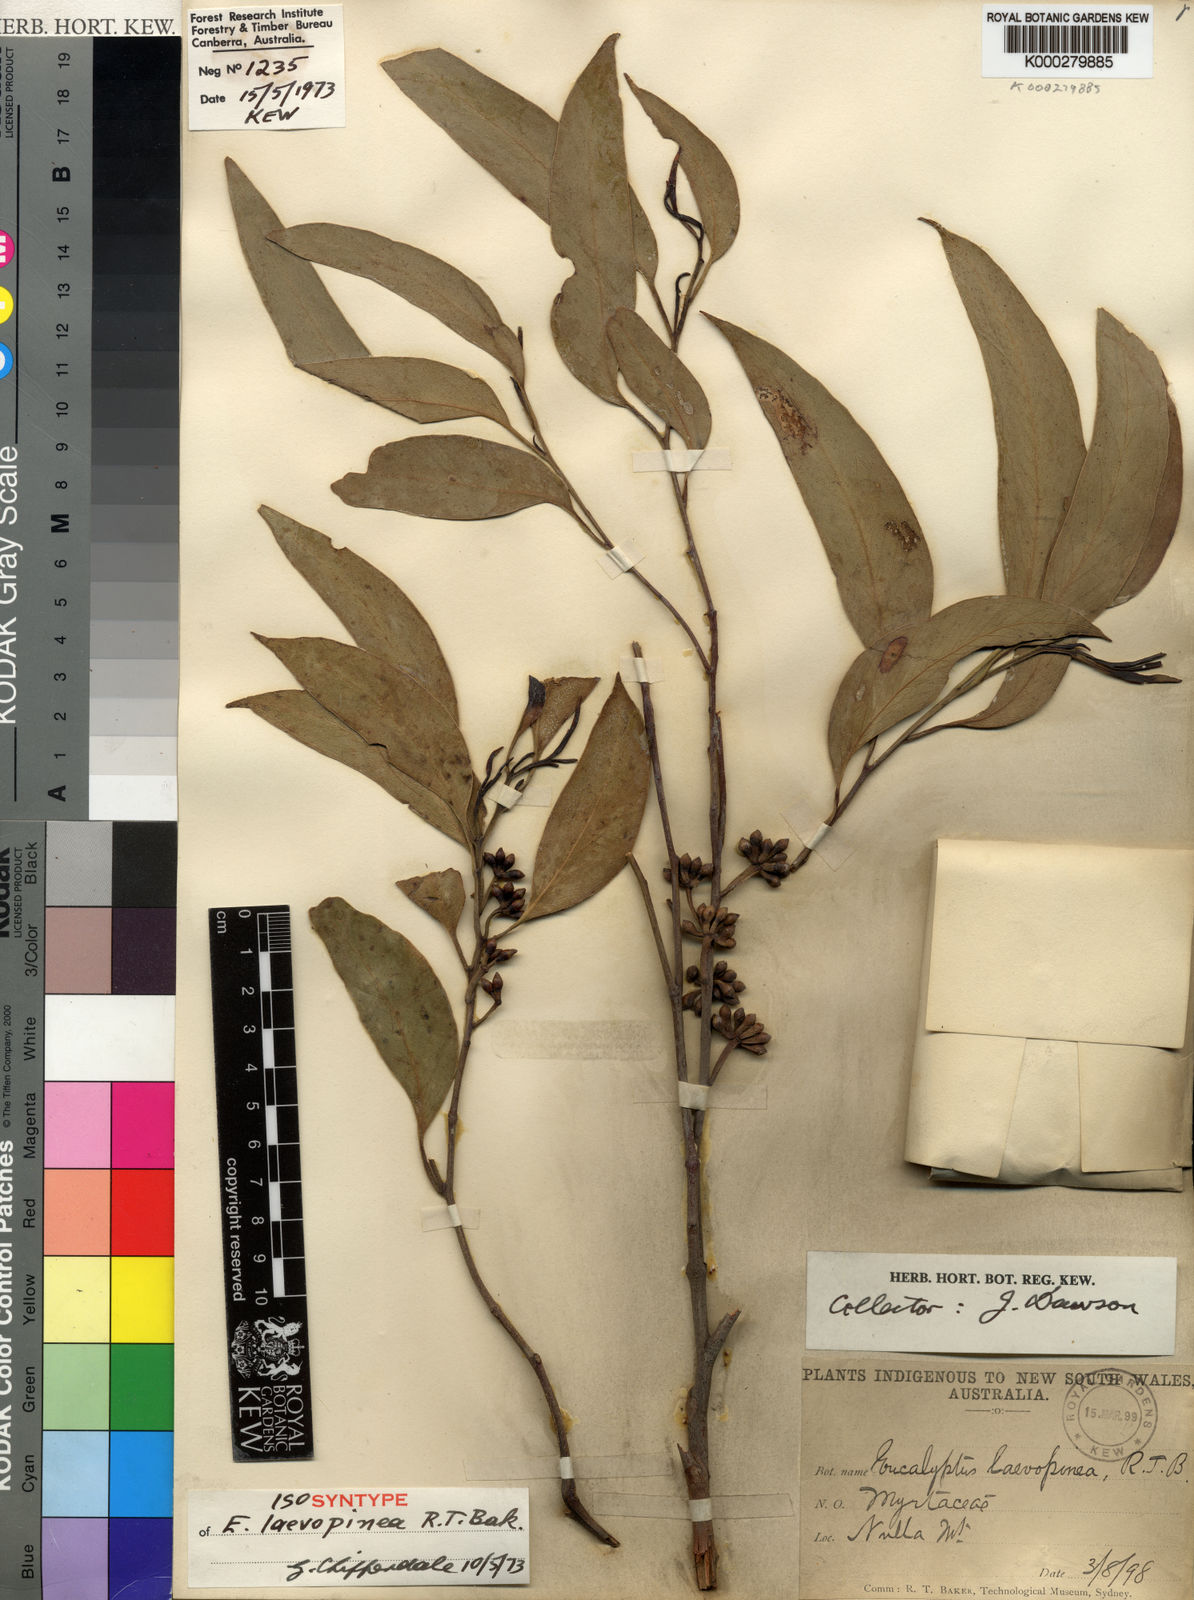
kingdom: Plantae
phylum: Tracheophyta
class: Magnoliopsida
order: Myrtales
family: Myrtaceae
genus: Eucalyptus
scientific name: Eucalyptus laevopinea
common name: Silvertop stringybark
